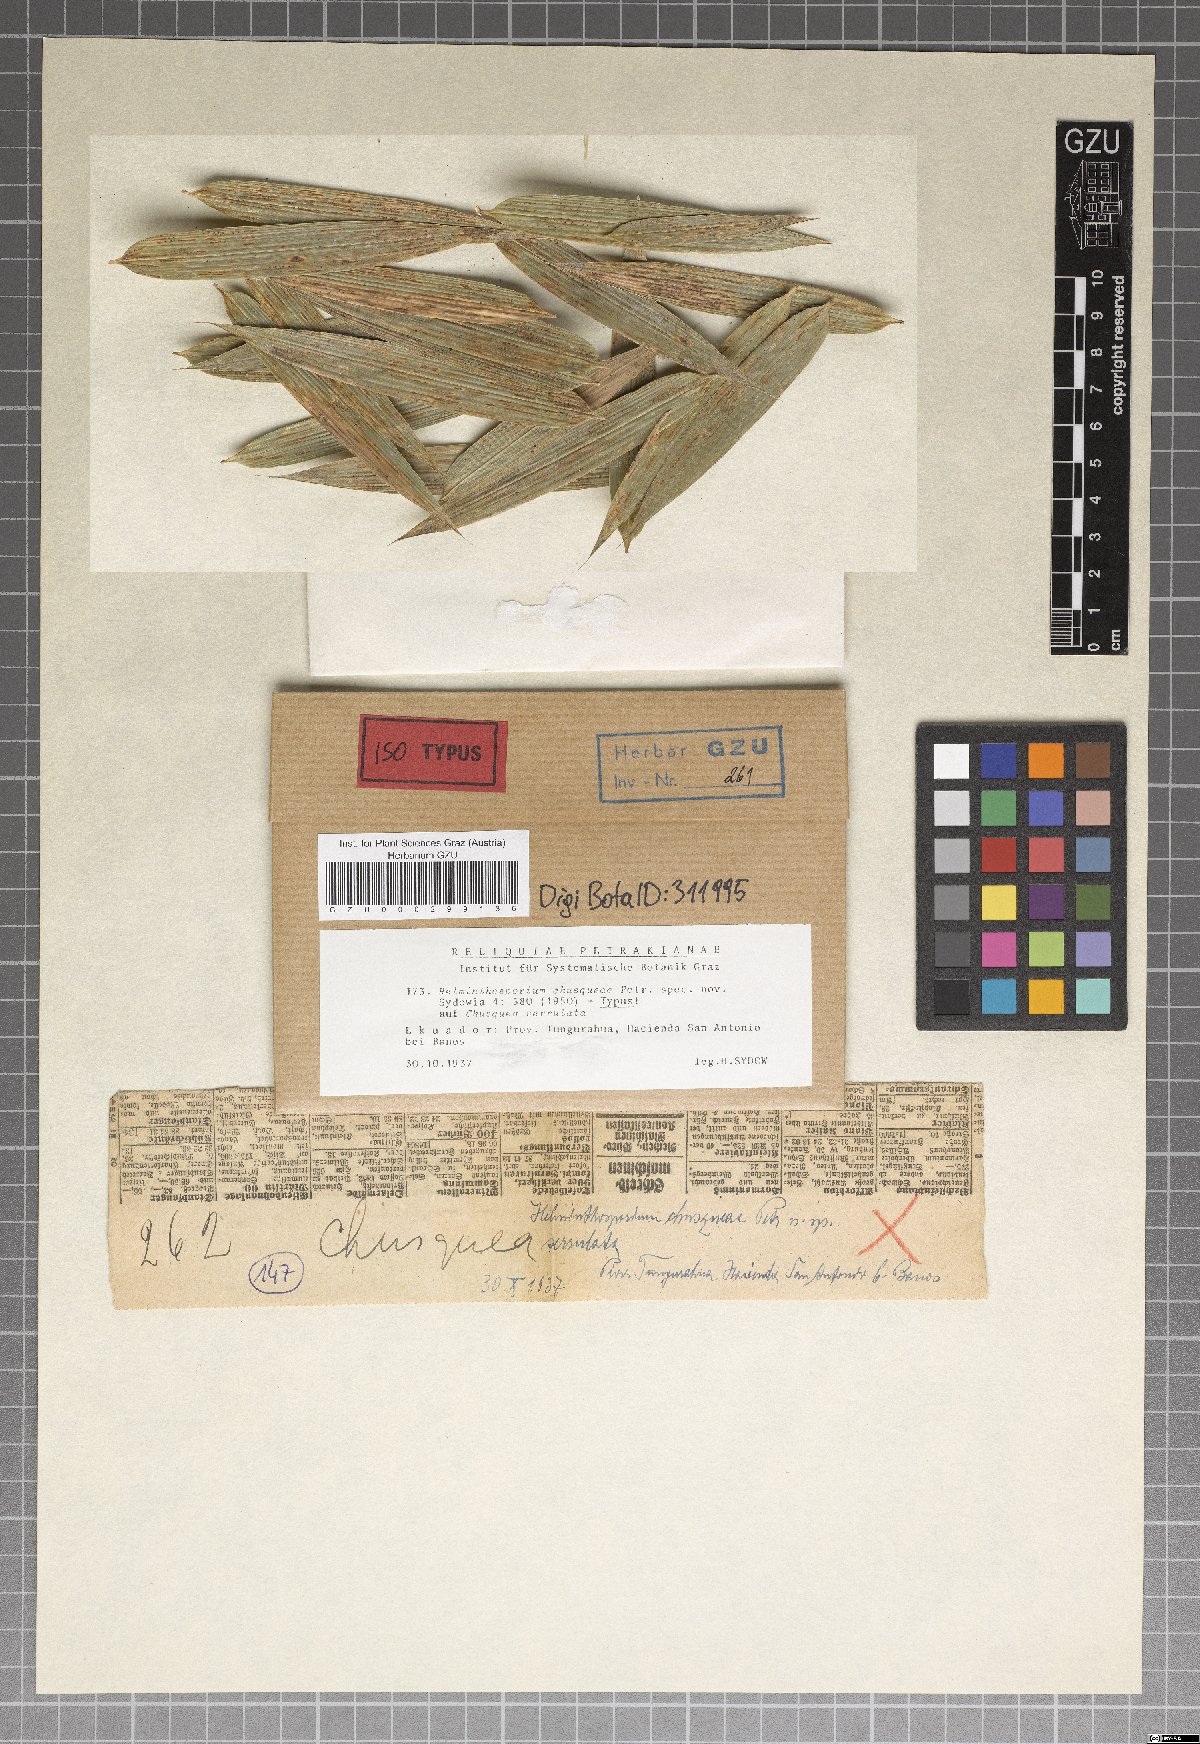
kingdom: Fungi
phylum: Ascomycota
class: Dothideomycetes
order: Pleosporales
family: Massarinaceae
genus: Helminthosporium
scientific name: Helminthosporium chusqueae
